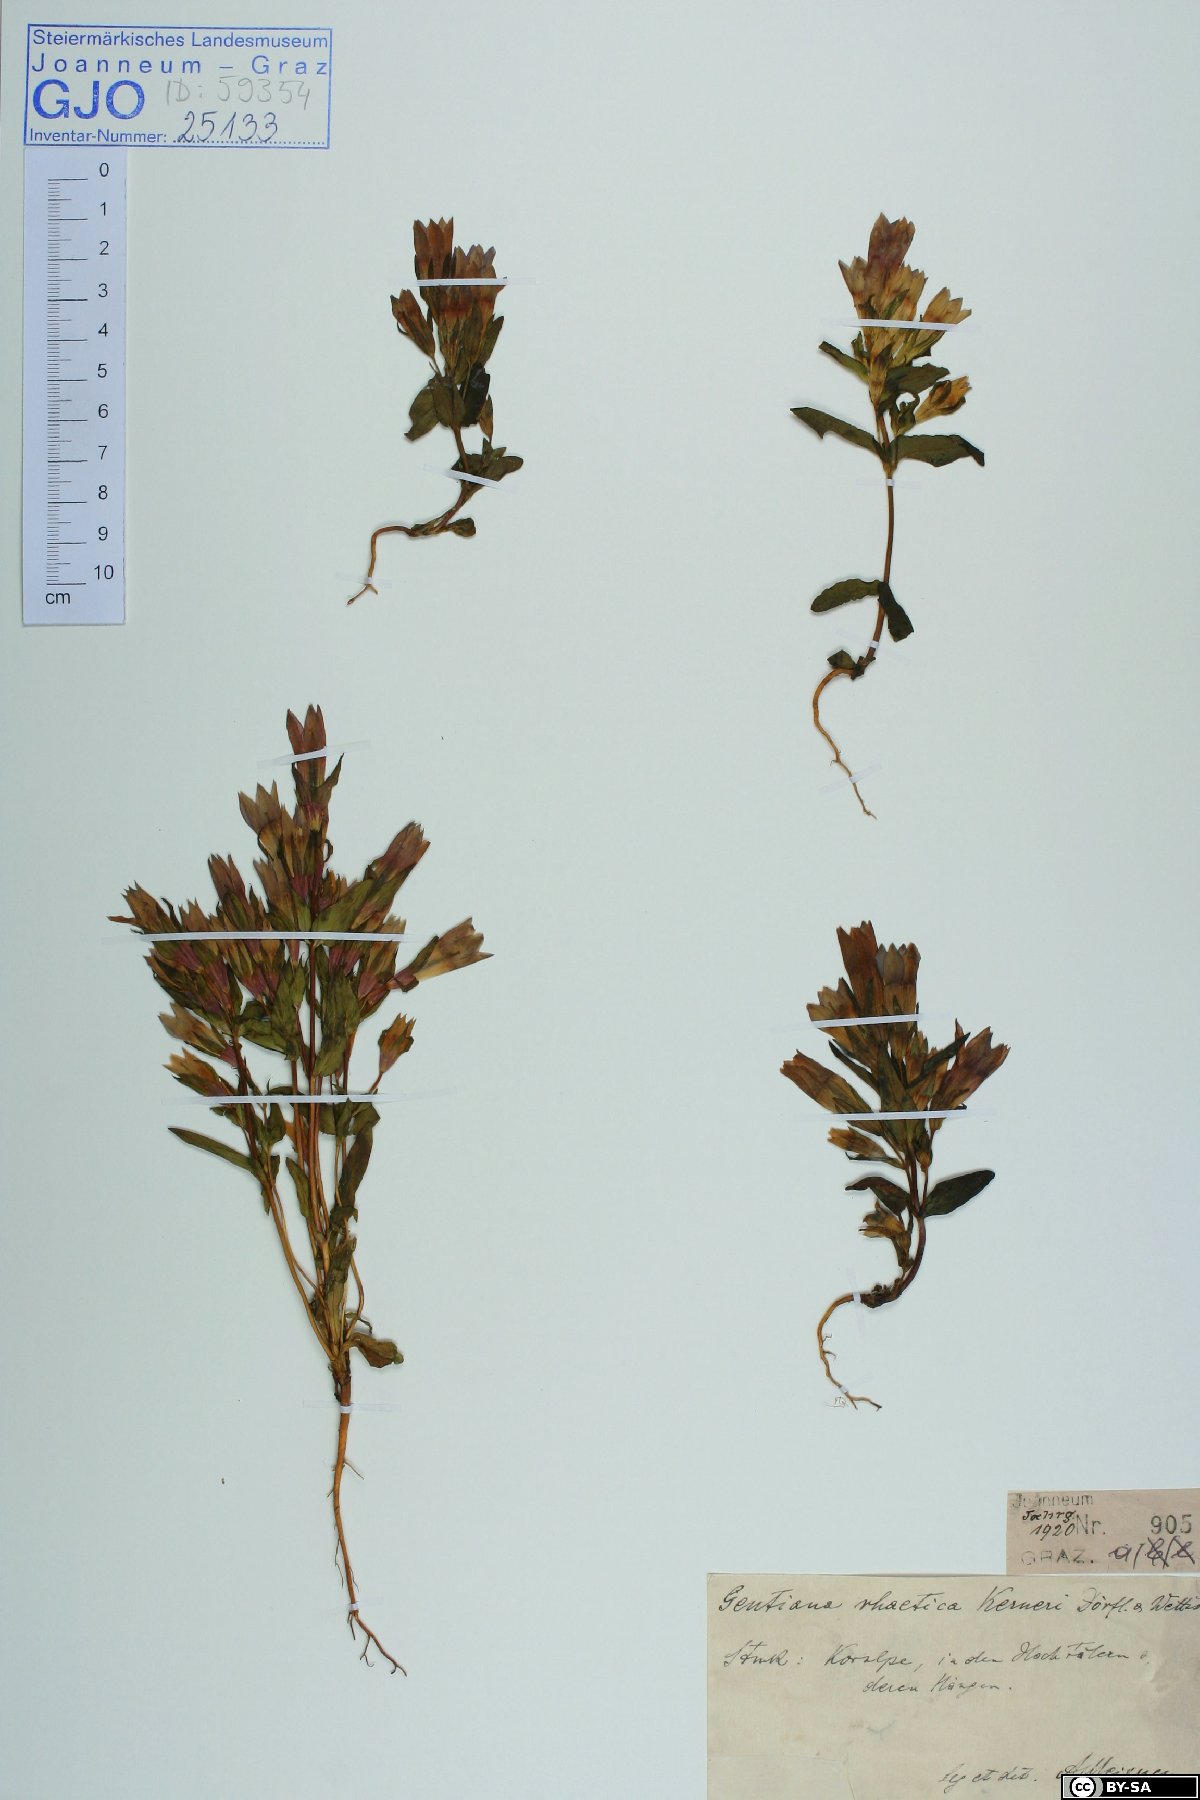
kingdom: Plantae
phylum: Tracheophyta
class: Magnoliopsida
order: Gentianales
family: Gentianaceae
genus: Gentianella
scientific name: Gentianella rhaetica
